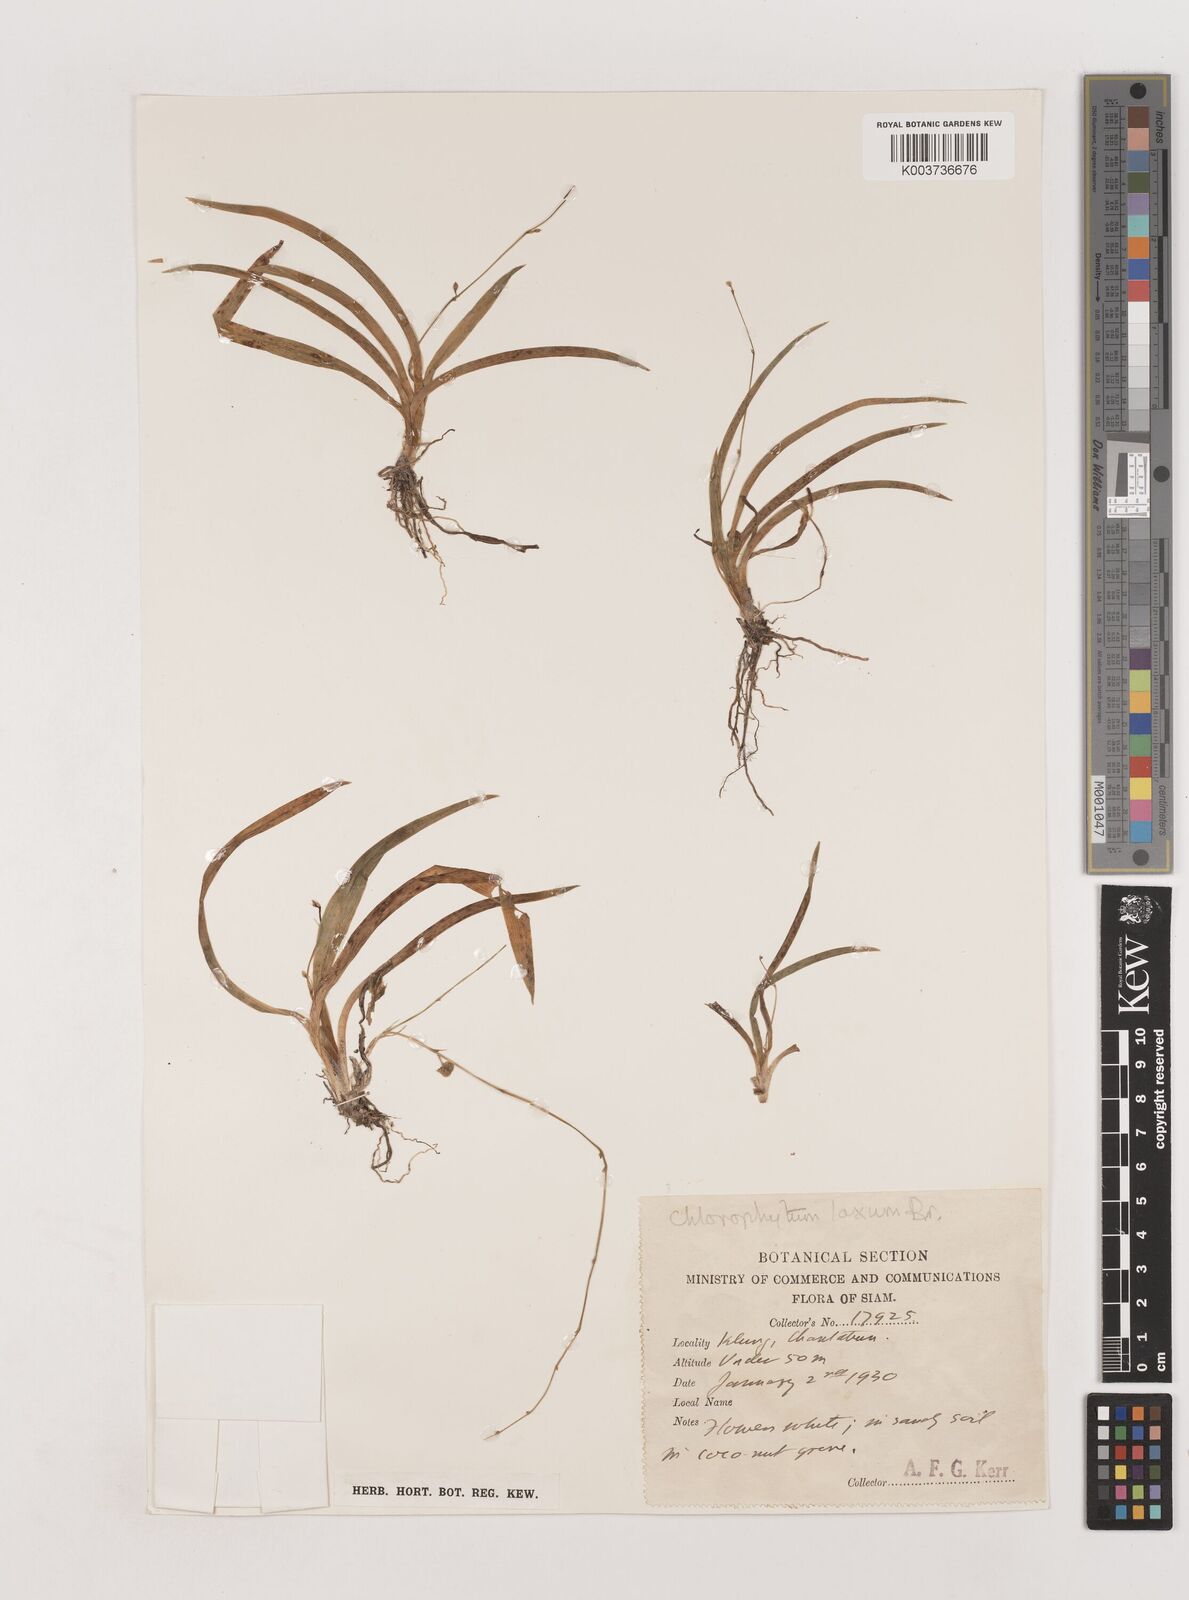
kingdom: Plantae
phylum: Tracheophyta
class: Liliopsida
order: Asparagales
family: Asparagaceae
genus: Chlorophytum
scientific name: Chlorophytum laxum
